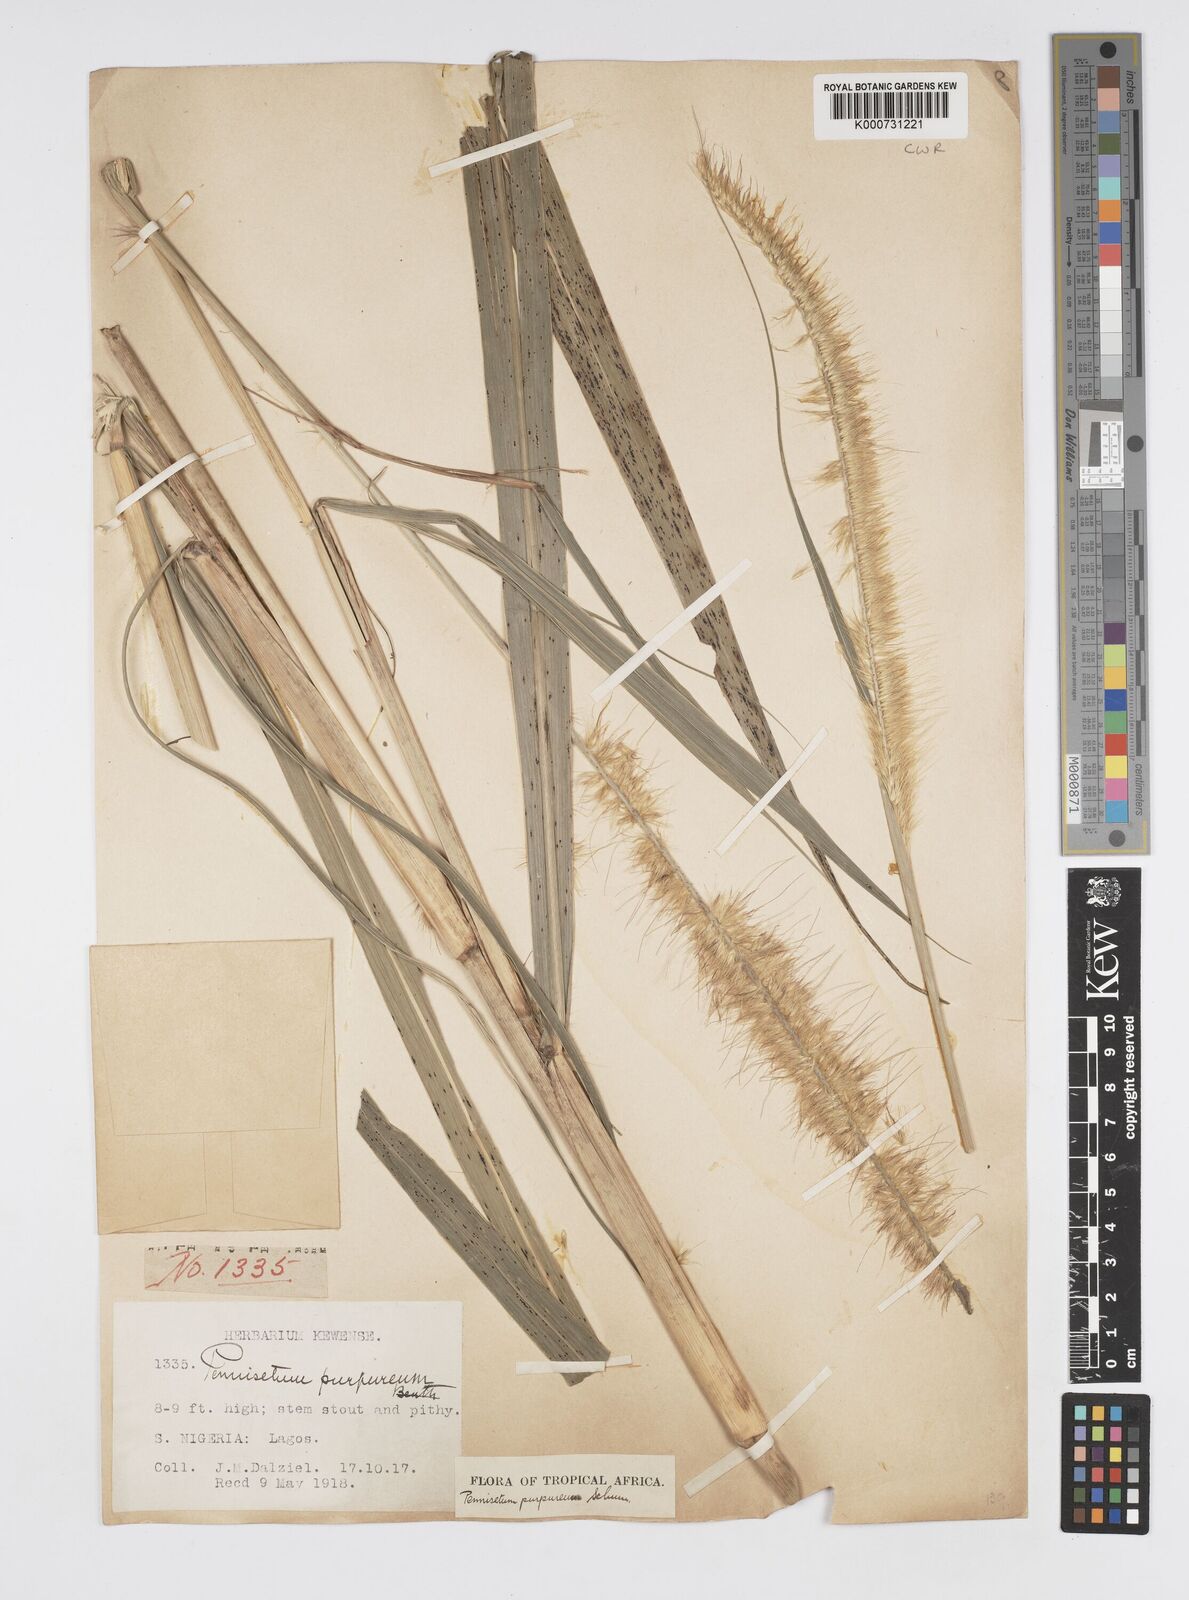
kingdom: Plantae
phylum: Tracheophyta
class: Liliopsida
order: Poales
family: Poaceae
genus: Cenchrus
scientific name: Cenchrus purpureus
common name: Elephant grass
